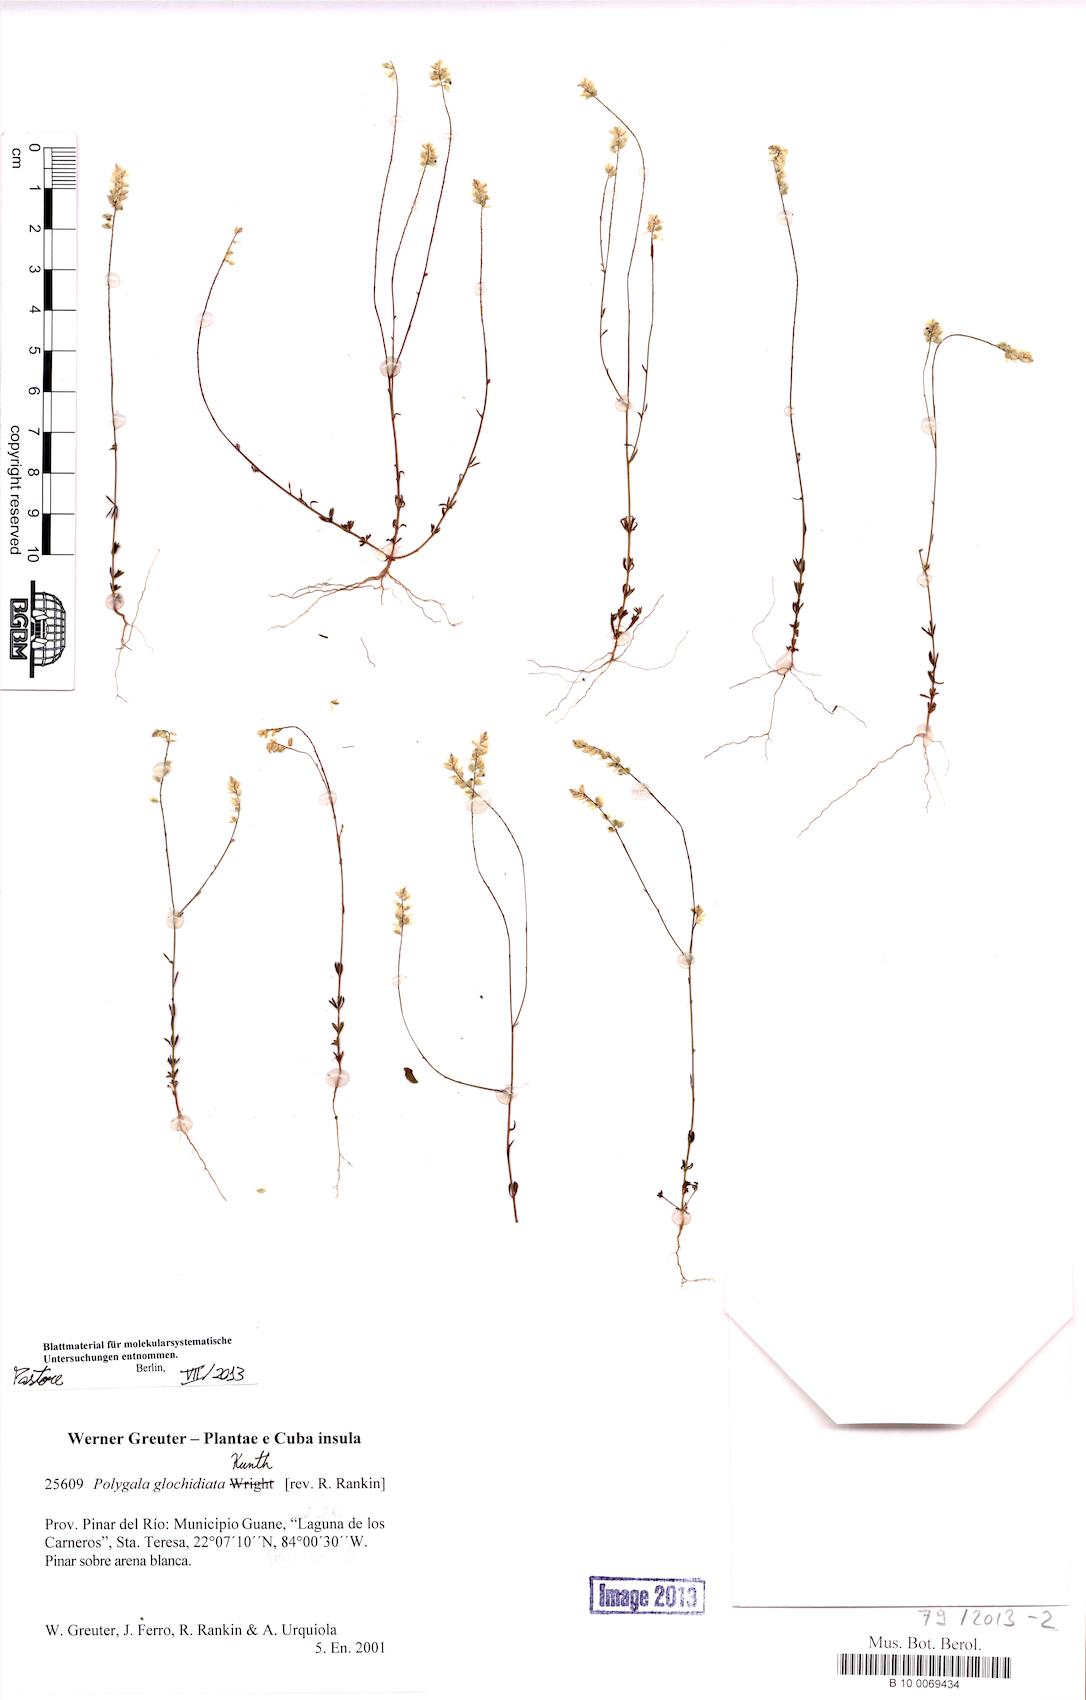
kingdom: Plantae
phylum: Tracheophyta
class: Magnoliopsida
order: Fabales
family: Polygalaceae
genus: Polygala
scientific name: Polygala glochidiata
